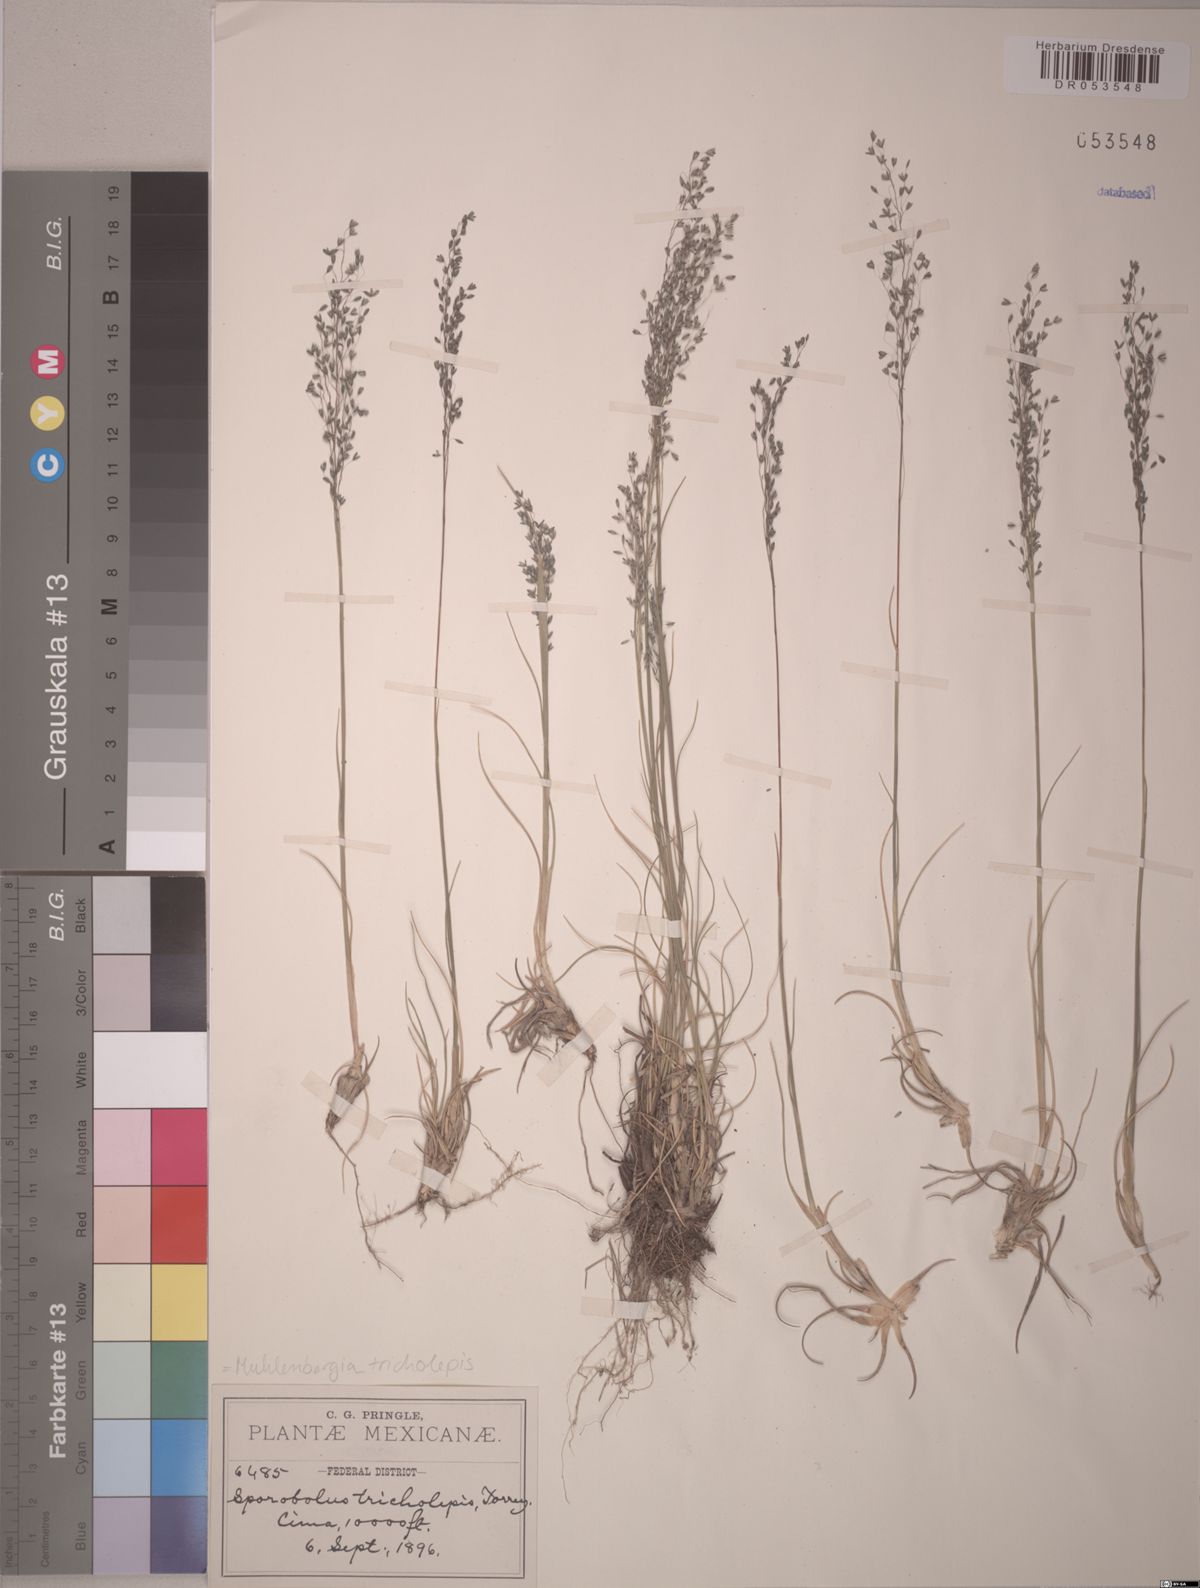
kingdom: Plantae
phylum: Tracheophyta
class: Liliopsida
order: Poales
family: Poaceae
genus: Muhlenbergia
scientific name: Muhlenbergia tricholepis
